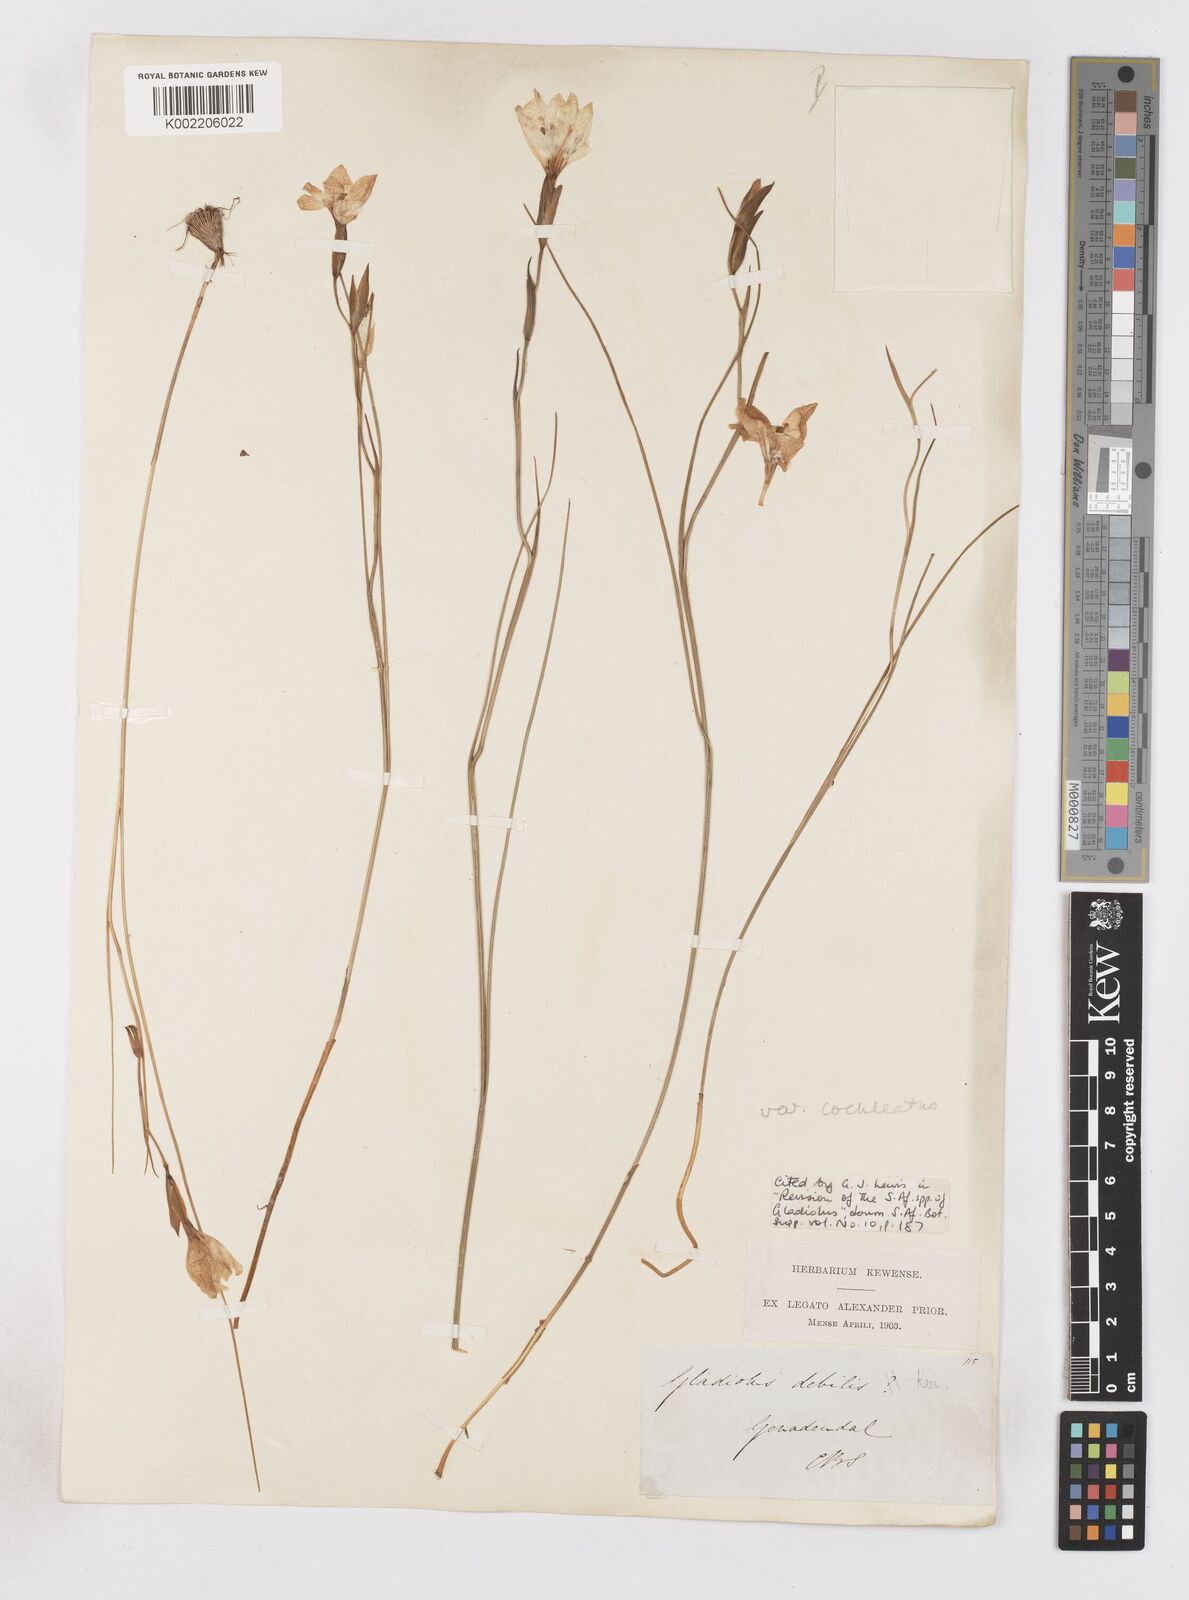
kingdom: Plantae
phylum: Tracheophyta
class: Liliopsida
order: Asparagales
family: Iridaceae
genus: Gladiolus
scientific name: Gladiolus debilis
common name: Painted-lady
